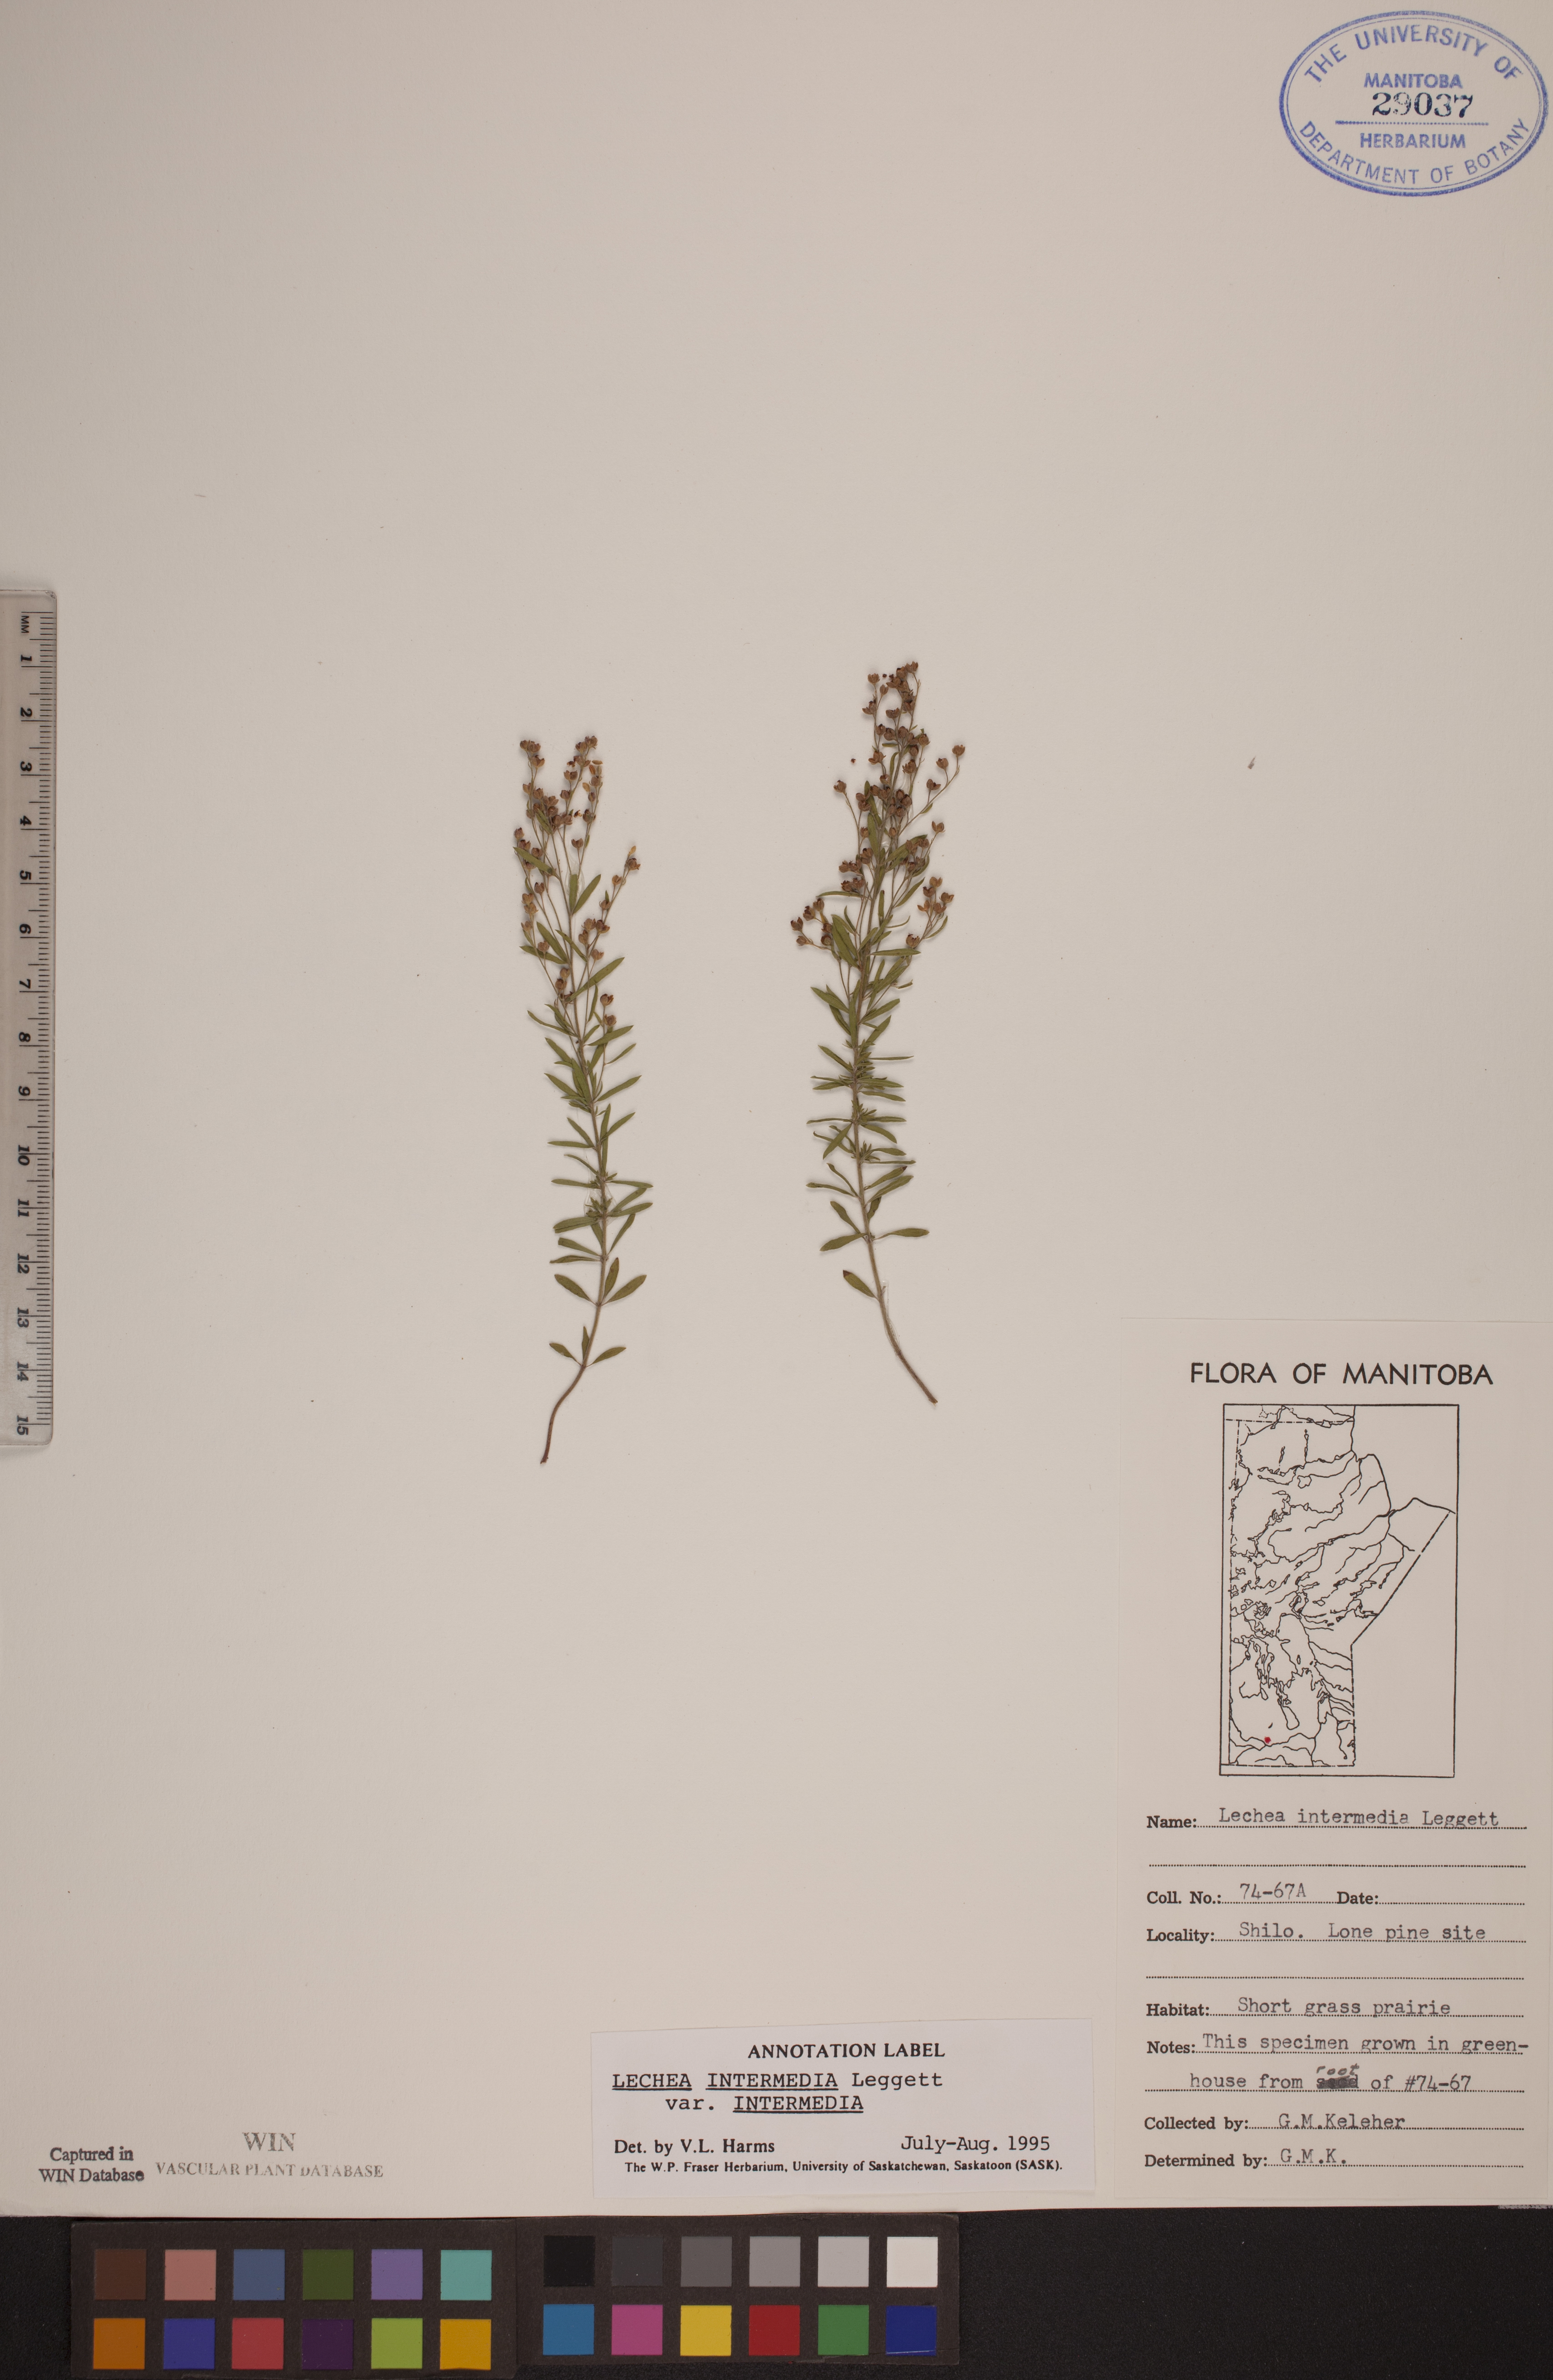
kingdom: Plantae
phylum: Tracheophyta
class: Magnoliopsida
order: Malvales
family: Cistaceae
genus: Lechea
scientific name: Lechea intermedia
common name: Intermediate pinweed
